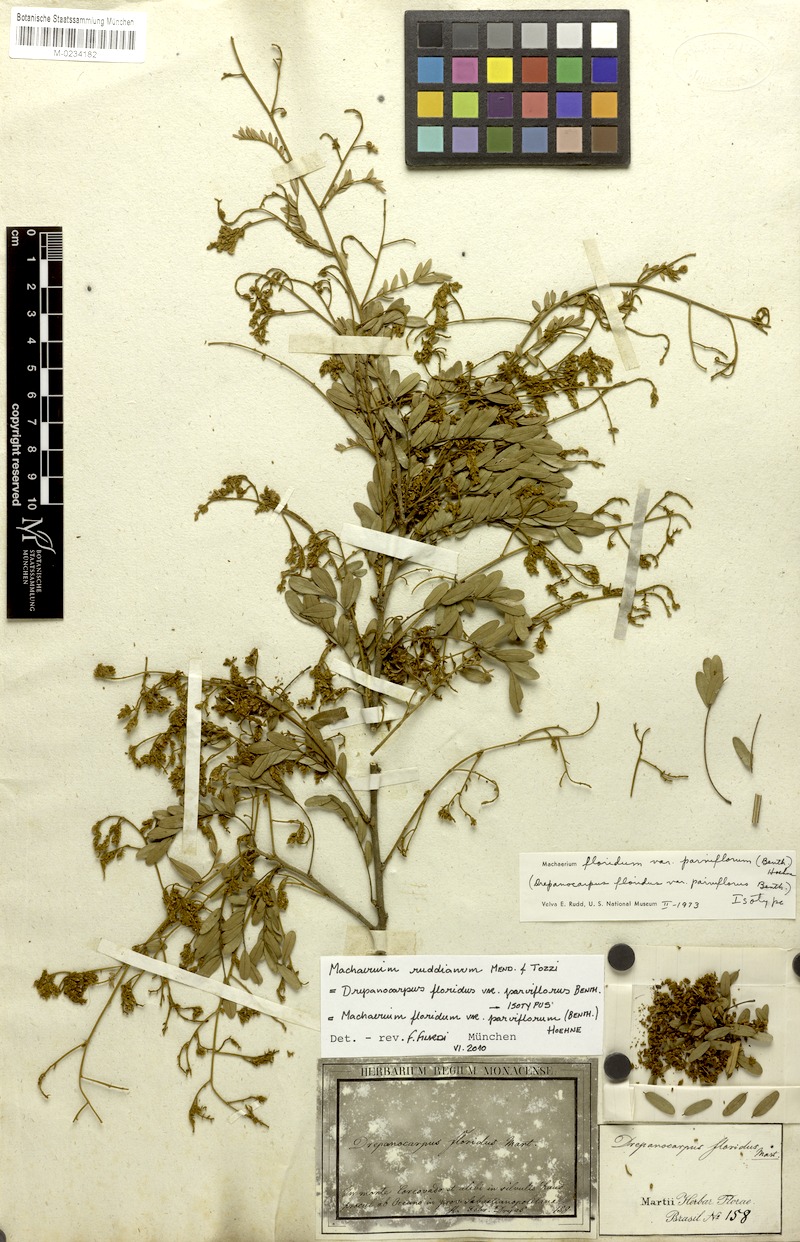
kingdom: Plantae
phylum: Tracheophyta
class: Magnoliopsida
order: Fabales
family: Fabaceae
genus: Machaerium
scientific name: Machaerium ruddianum
